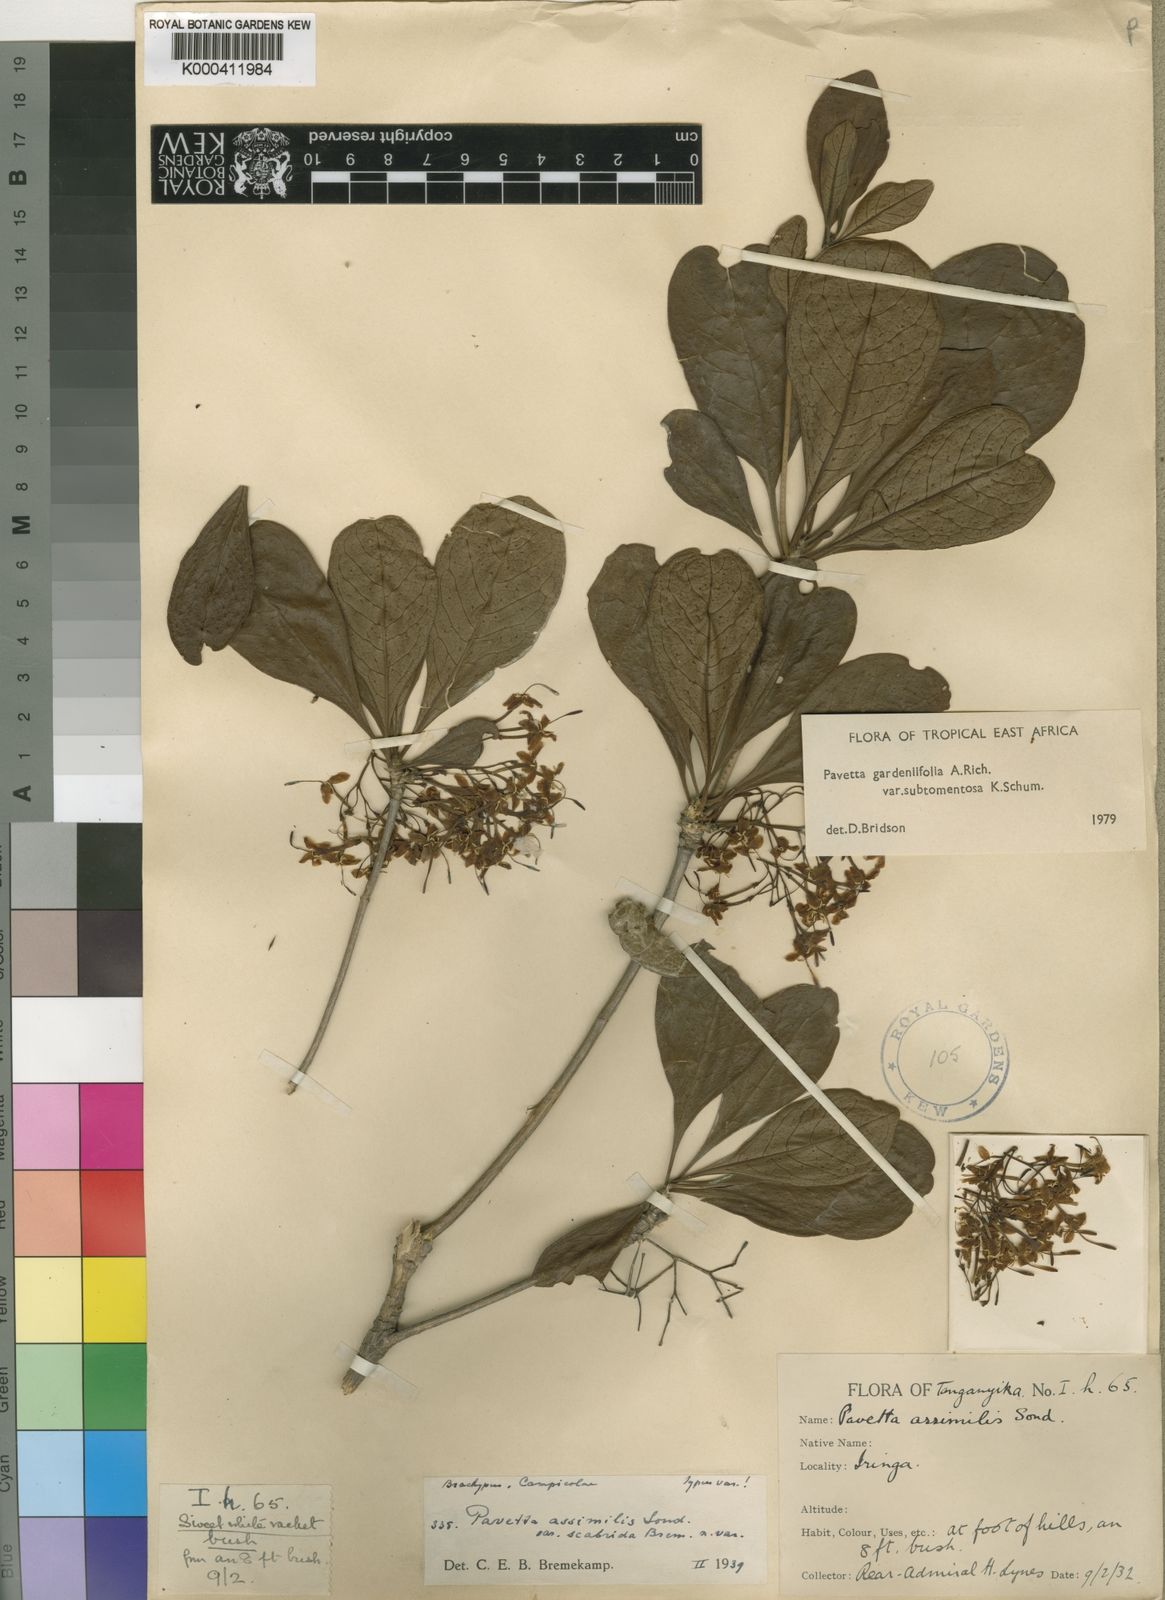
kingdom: Plantae
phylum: Tracheophyta
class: Magnoliopsida
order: Gentianales
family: Rubiaceae
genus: Pavetta
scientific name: Pavetta gardeniifolia
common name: Common brides-bush
